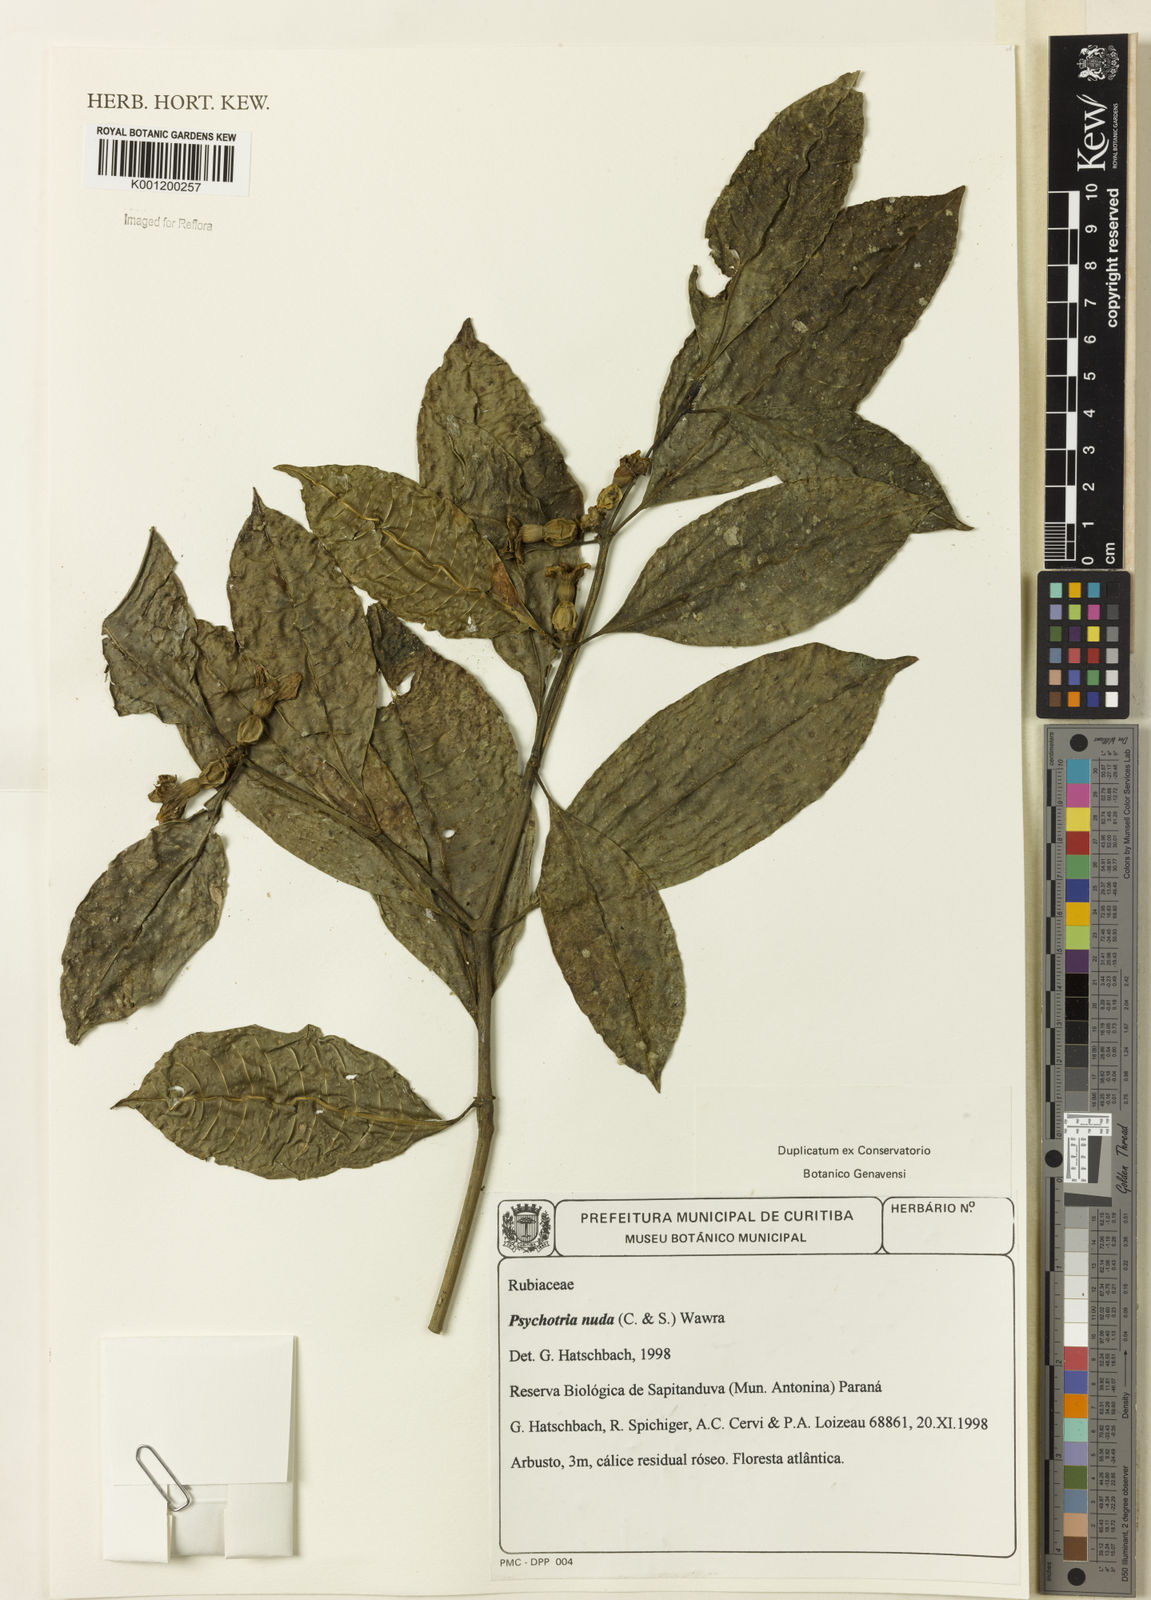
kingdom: Plantae
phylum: Tracheophyta
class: Magnoliopsida
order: Gentianales
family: Rubiaceae
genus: Psychotria
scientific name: Psychotria nuda
